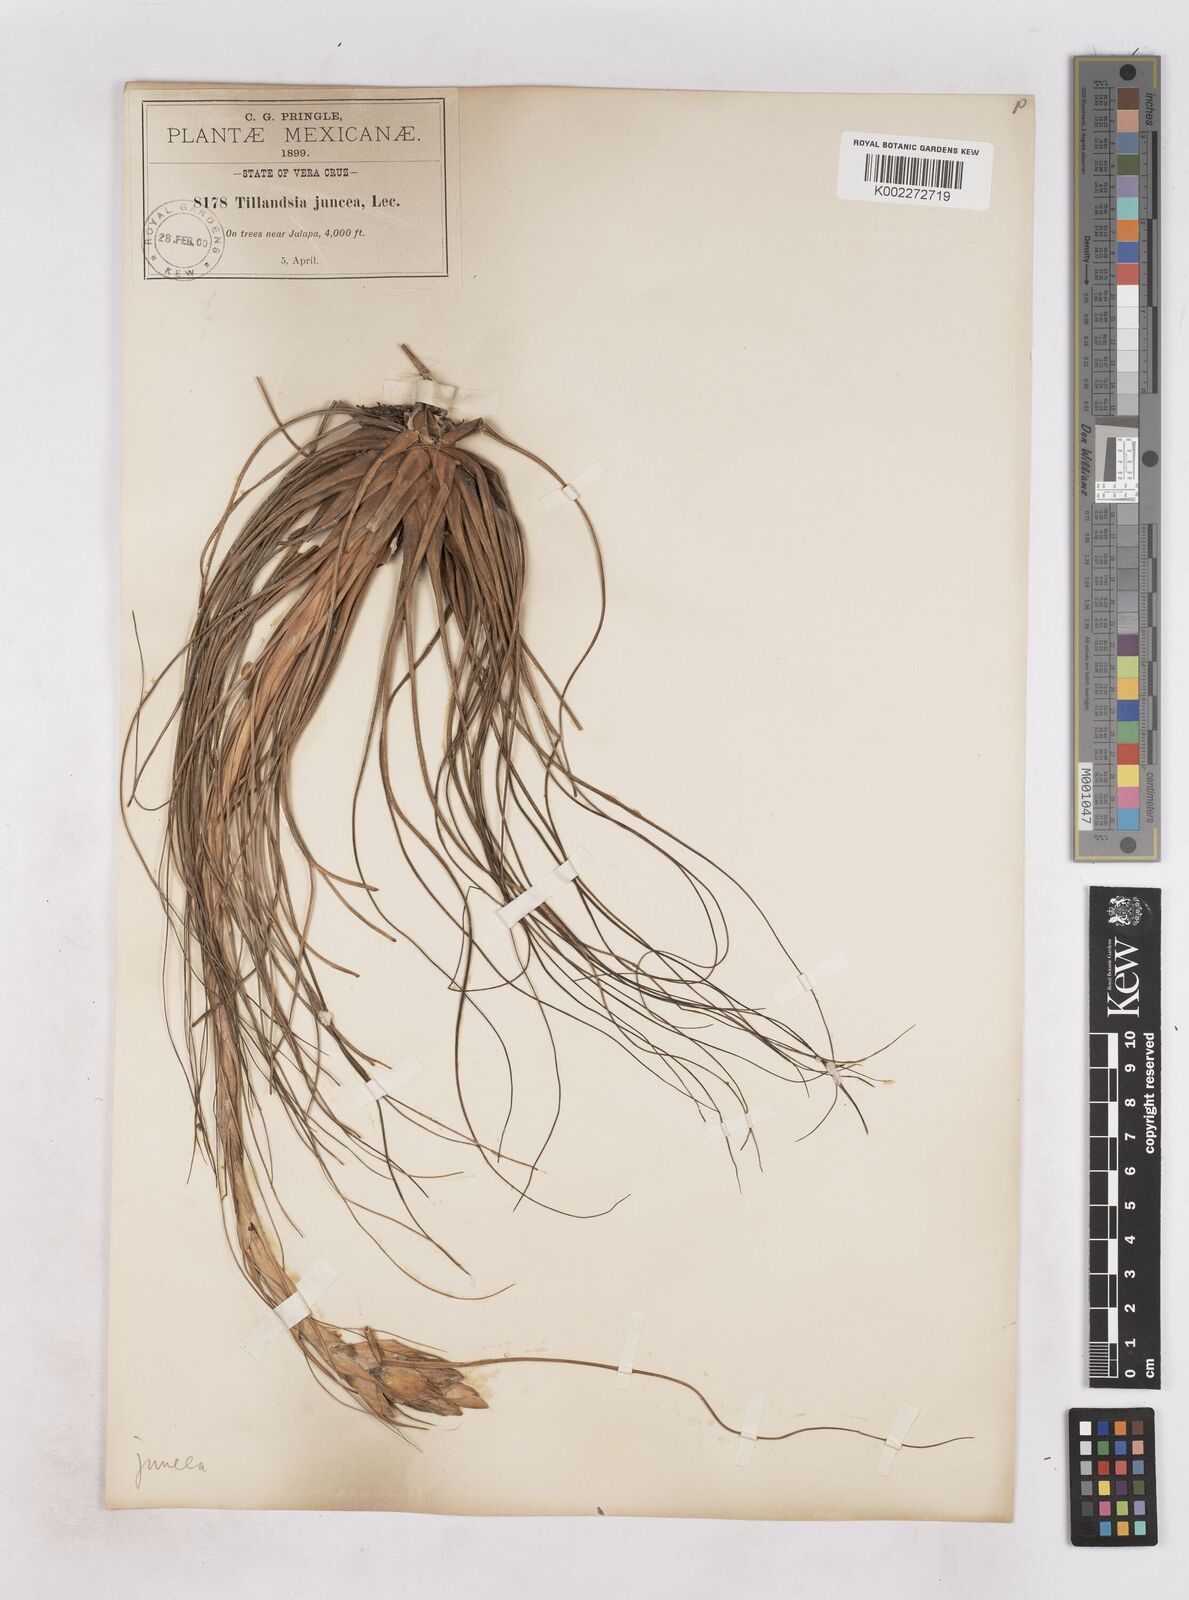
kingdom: Plantae
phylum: Tracheophyta
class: Liliopsida
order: Poales
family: Bromeliaceae
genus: Tillandsia
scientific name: Tillandsia juncea
